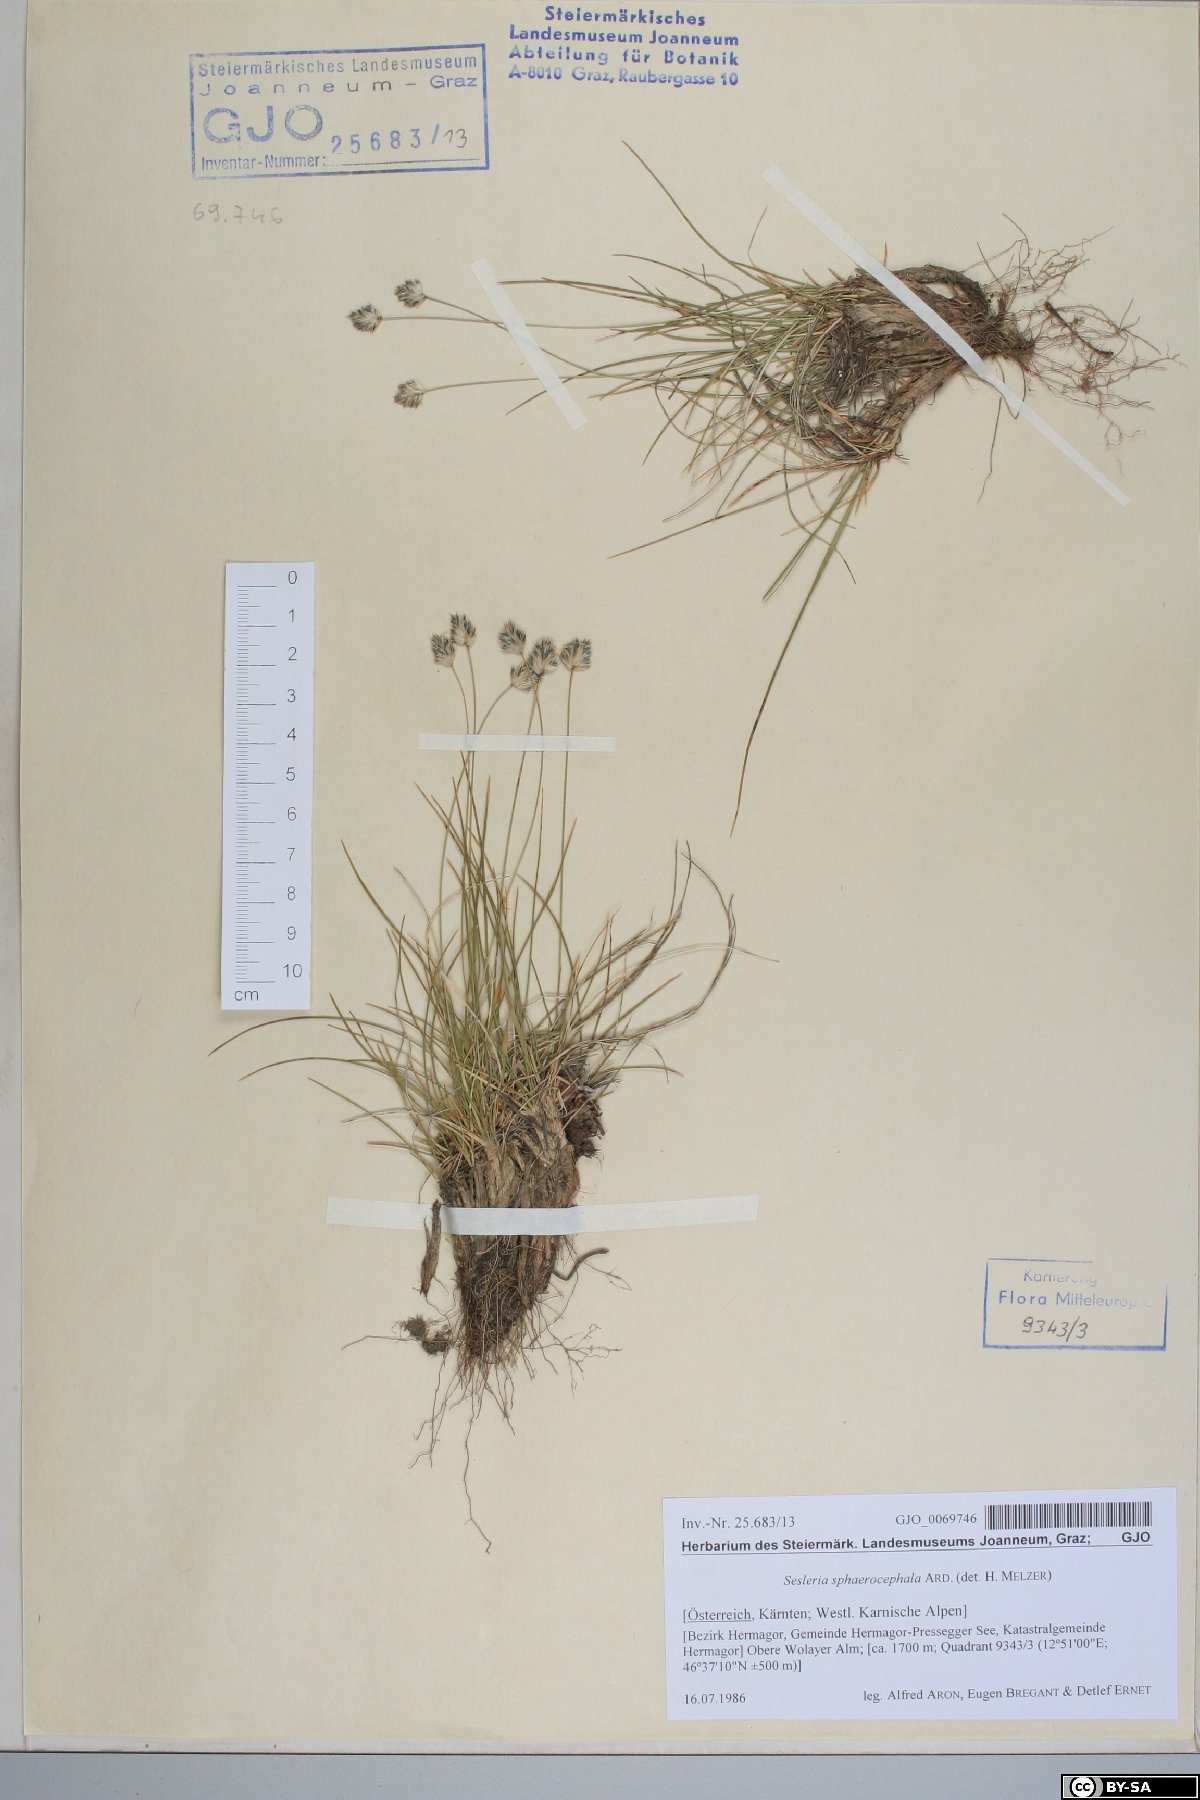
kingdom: Plantae
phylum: Tracheophyta
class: Liliopsida
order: Poales
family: Poaceae
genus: Sesleriella
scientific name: Sesleriella sphaerocephala
